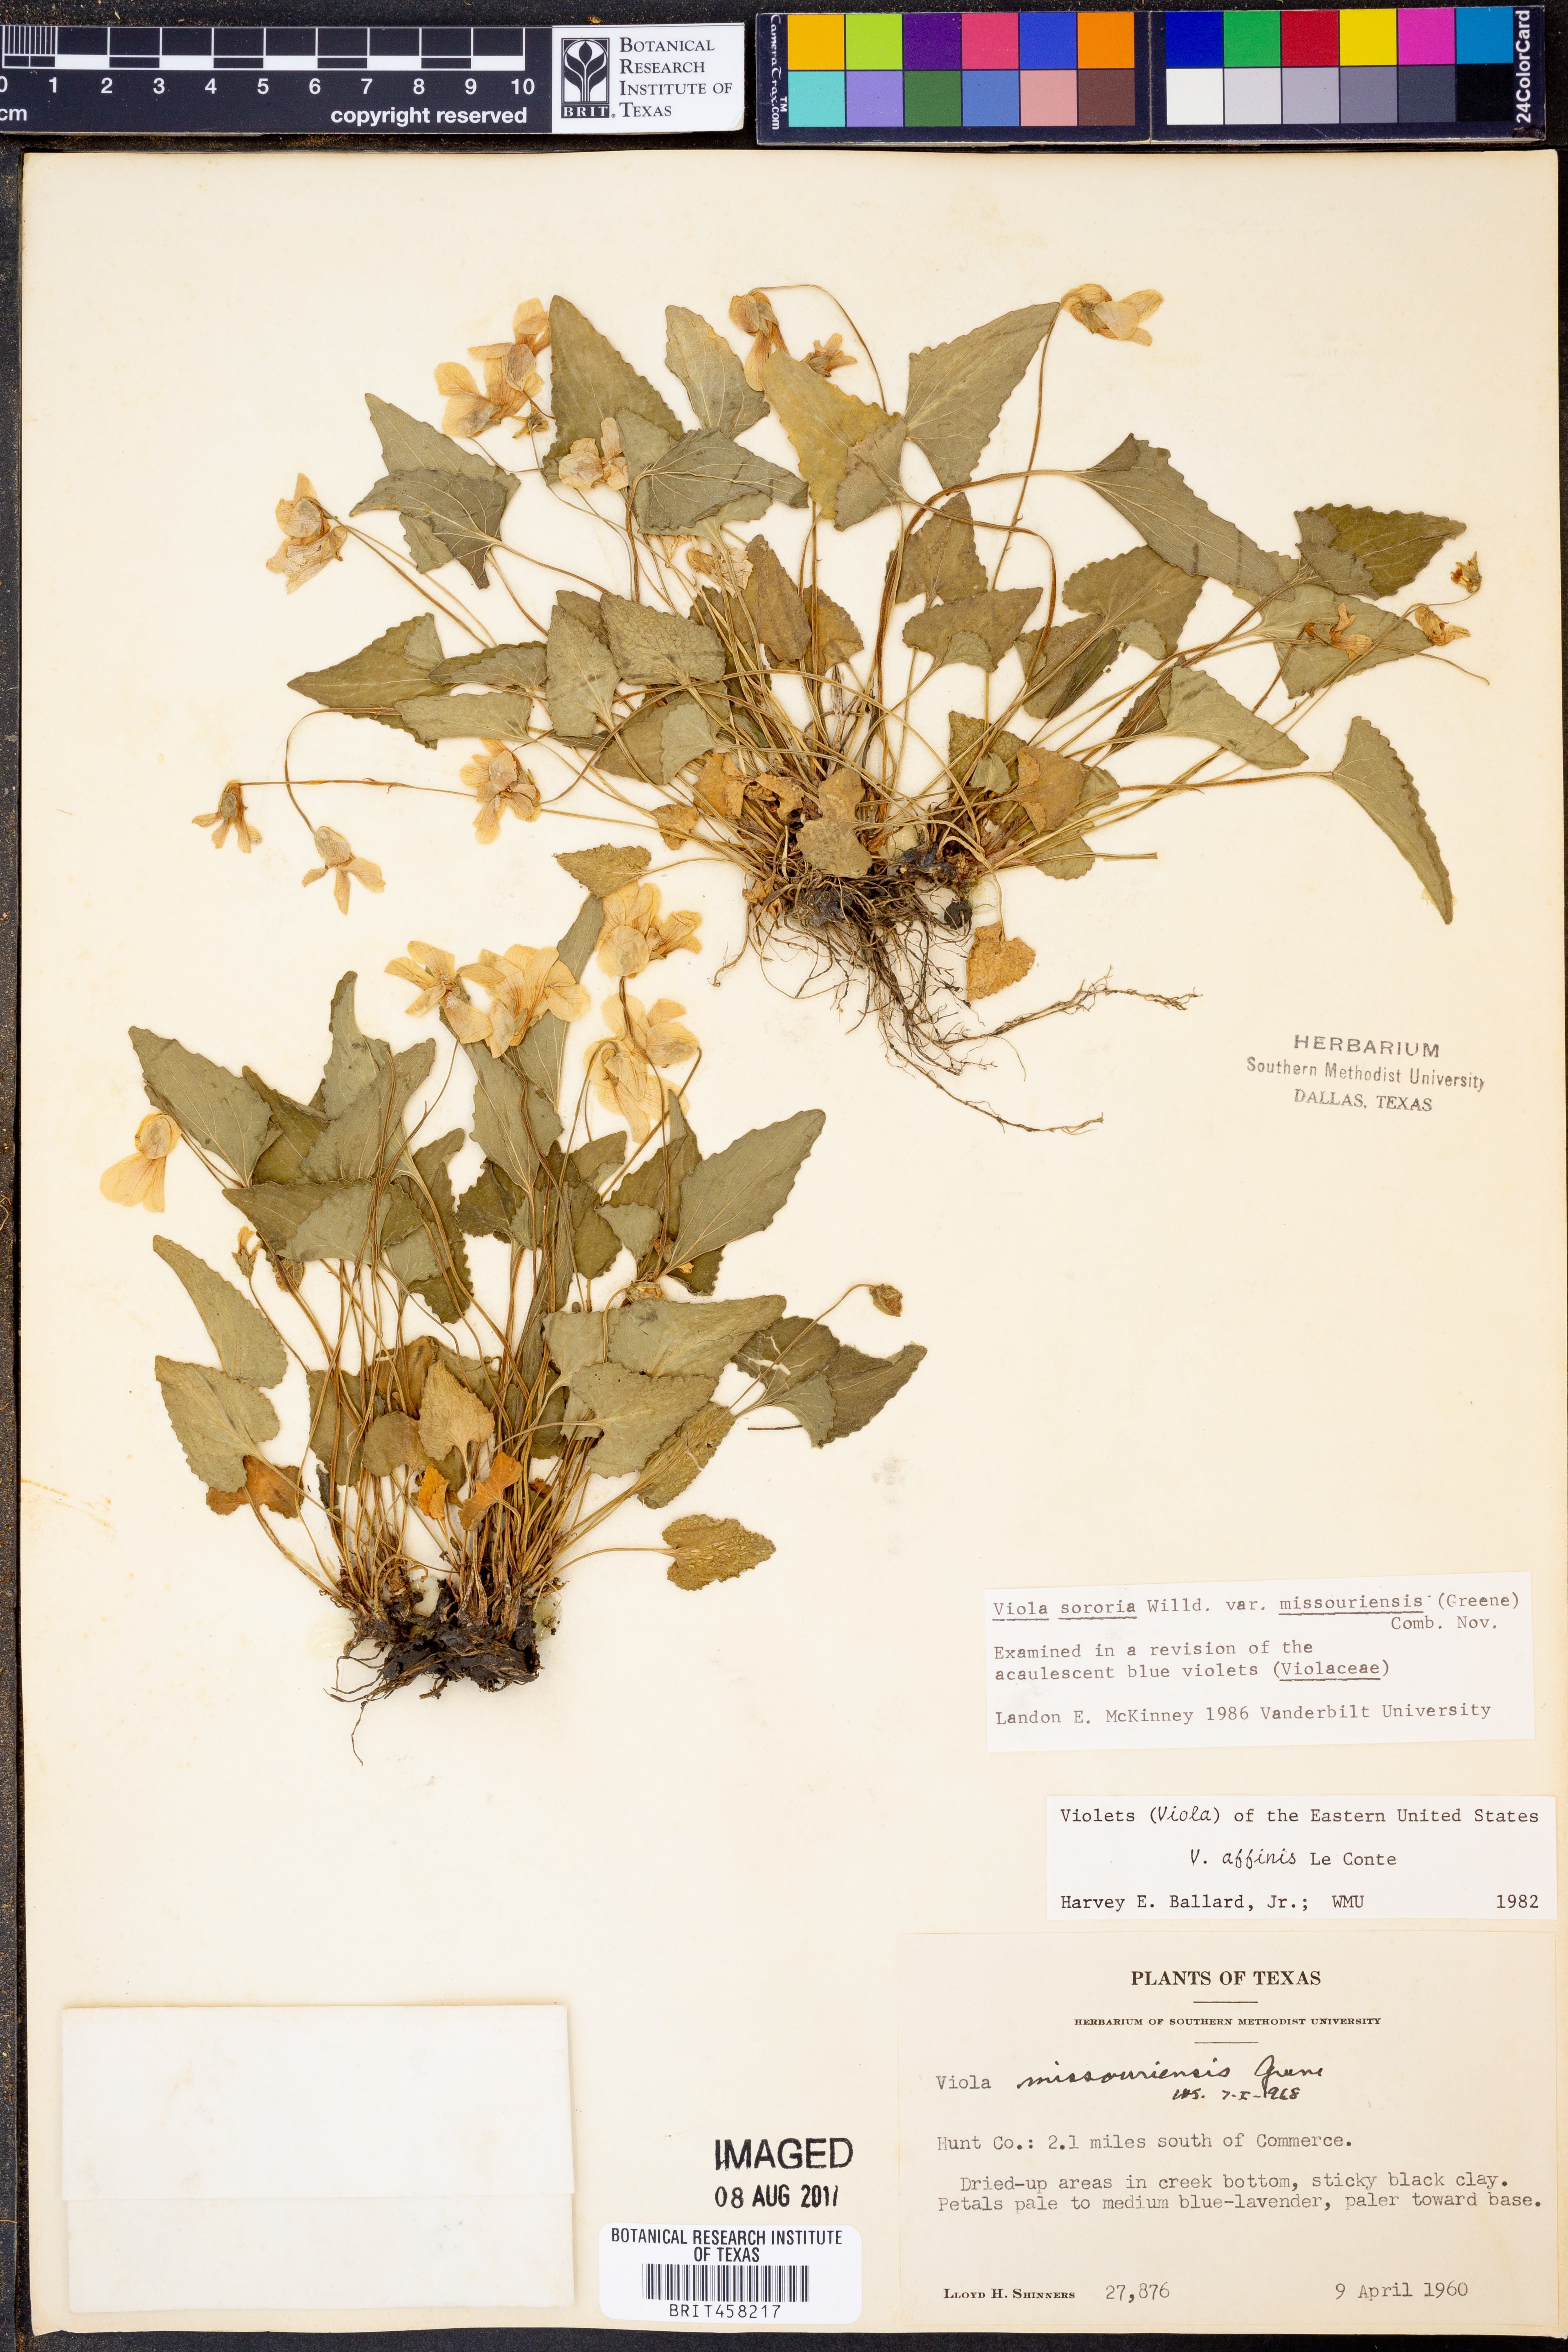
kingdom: Plantae
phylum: Tracheophyta
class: Magnoliopsida
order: Malpighiales
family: Violaceae
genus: Viola
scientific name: Viola missouriensis
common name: Missouri violet
